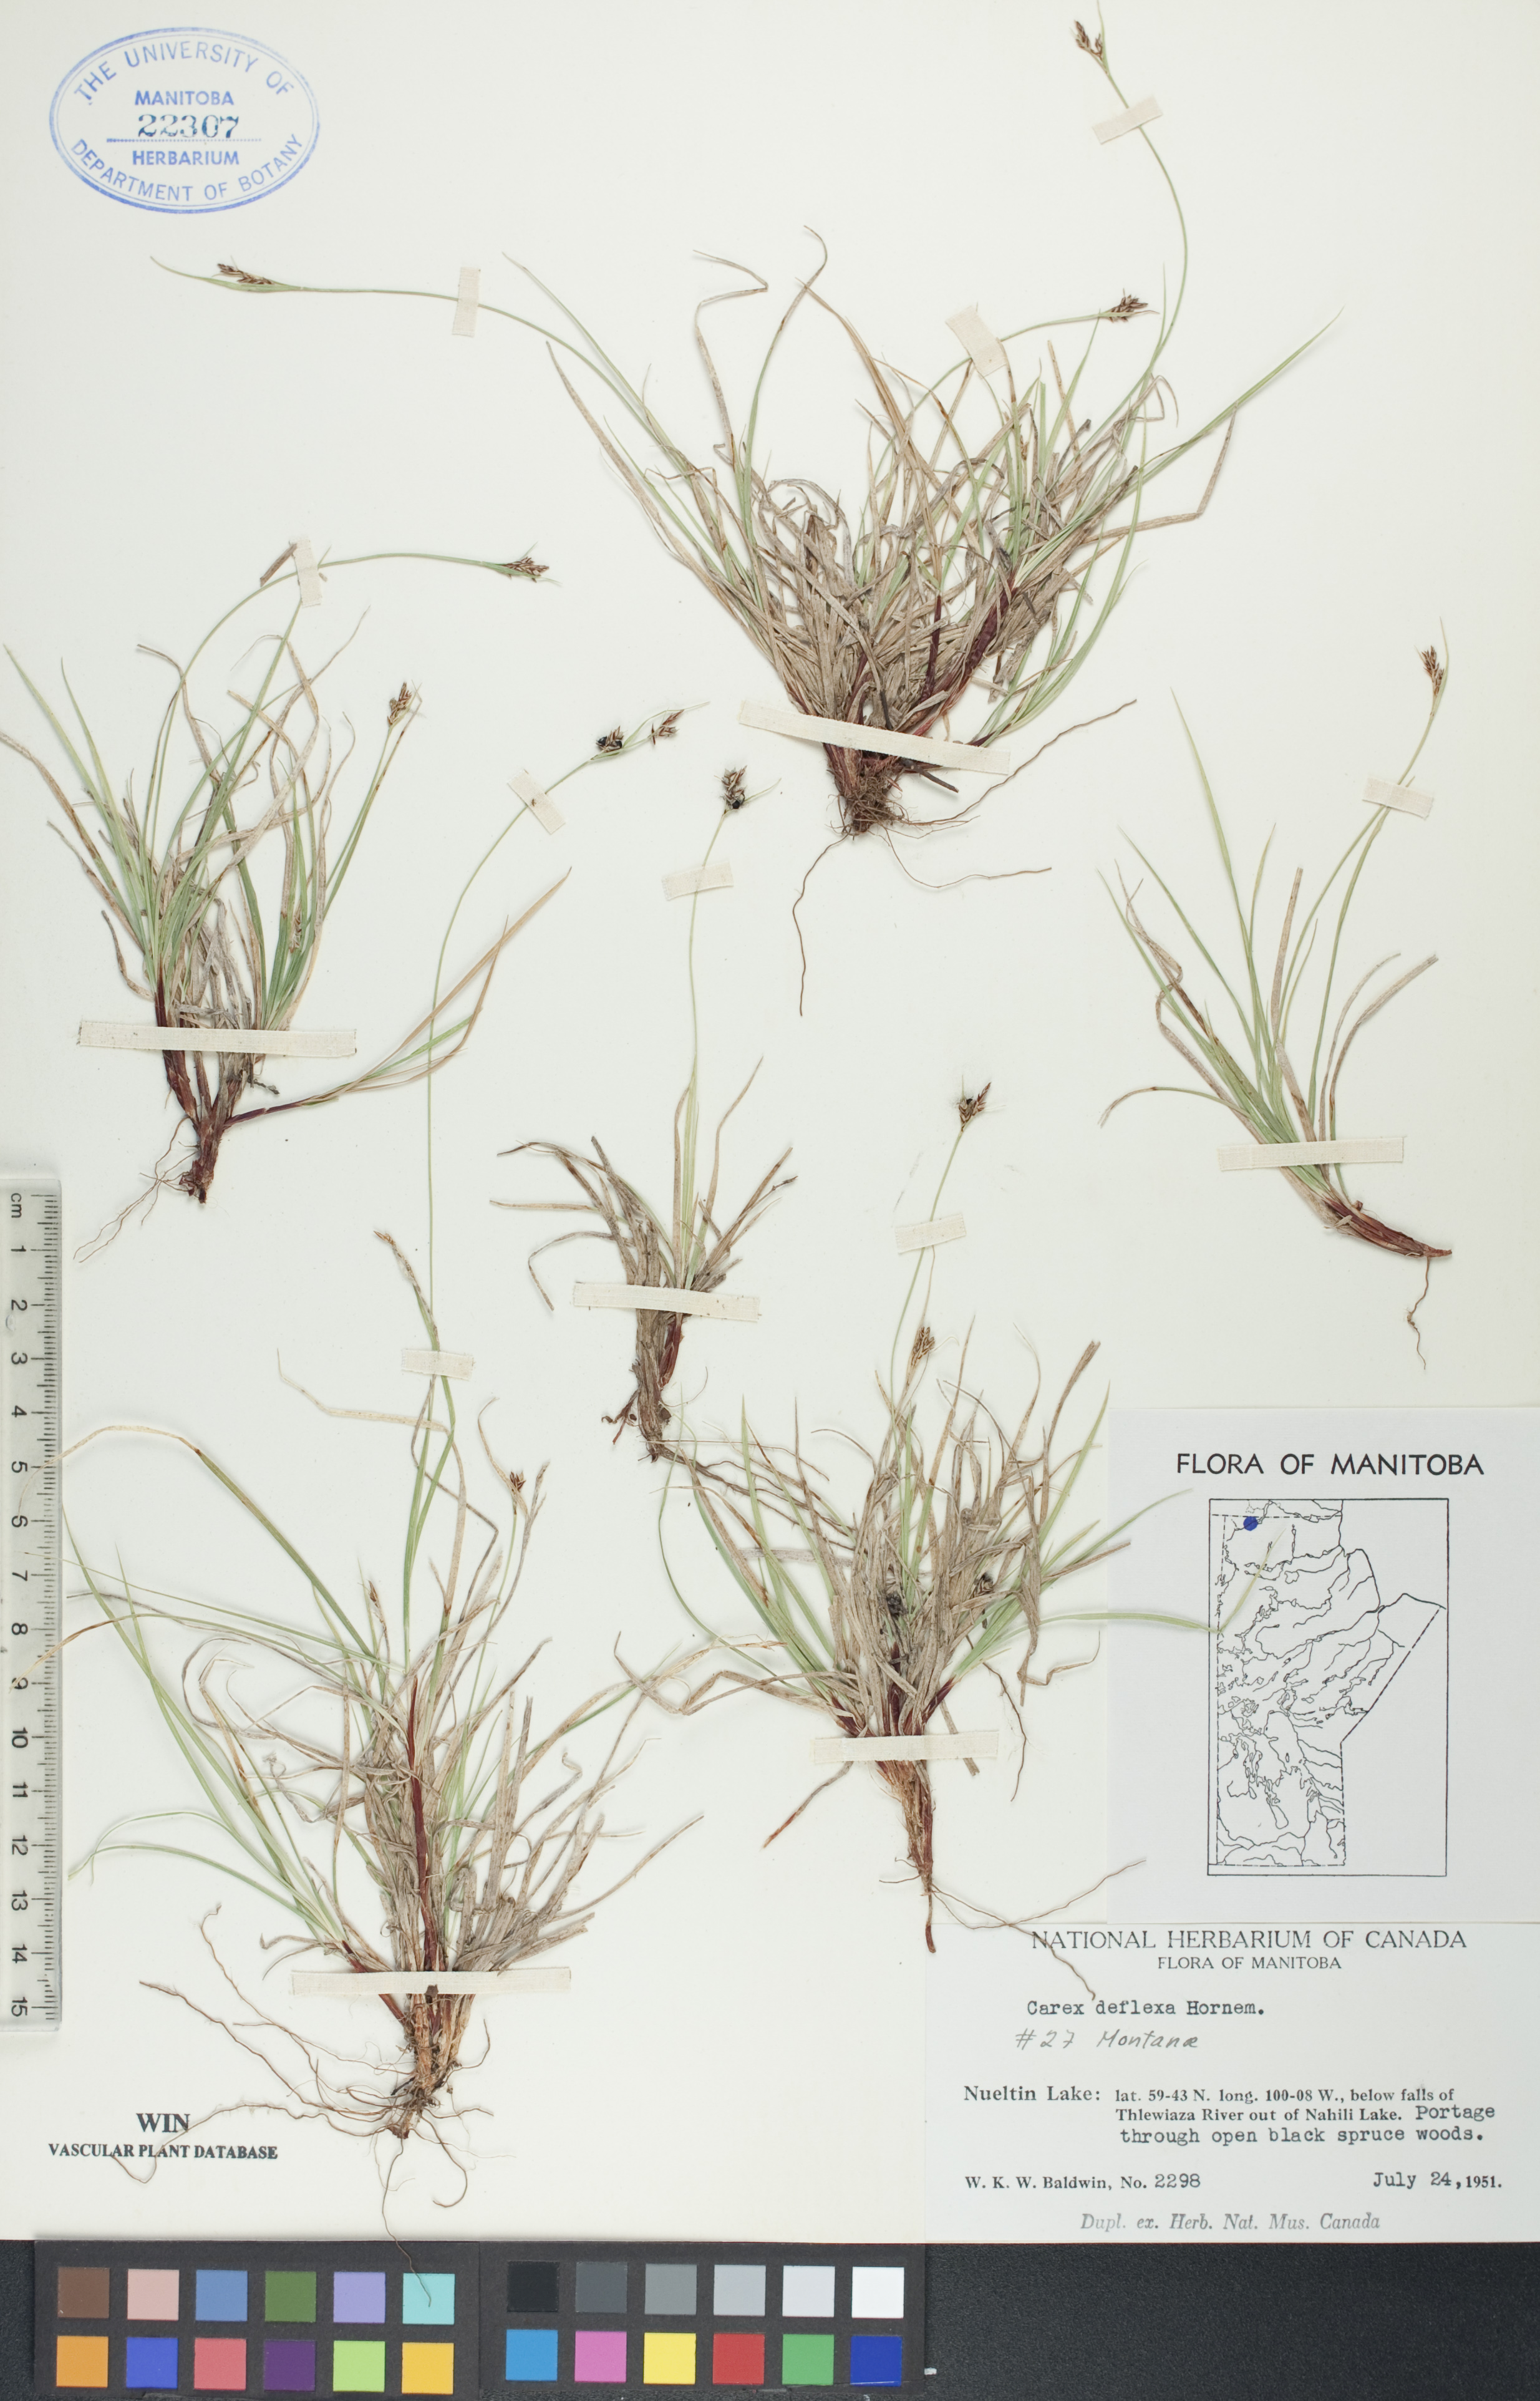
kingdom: Plantae
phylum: Tracheophyta
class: Liliopsida
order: Poales
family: Cyperaceae
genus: Carex
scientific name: Carex deflexa
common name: Bent northern sedge
